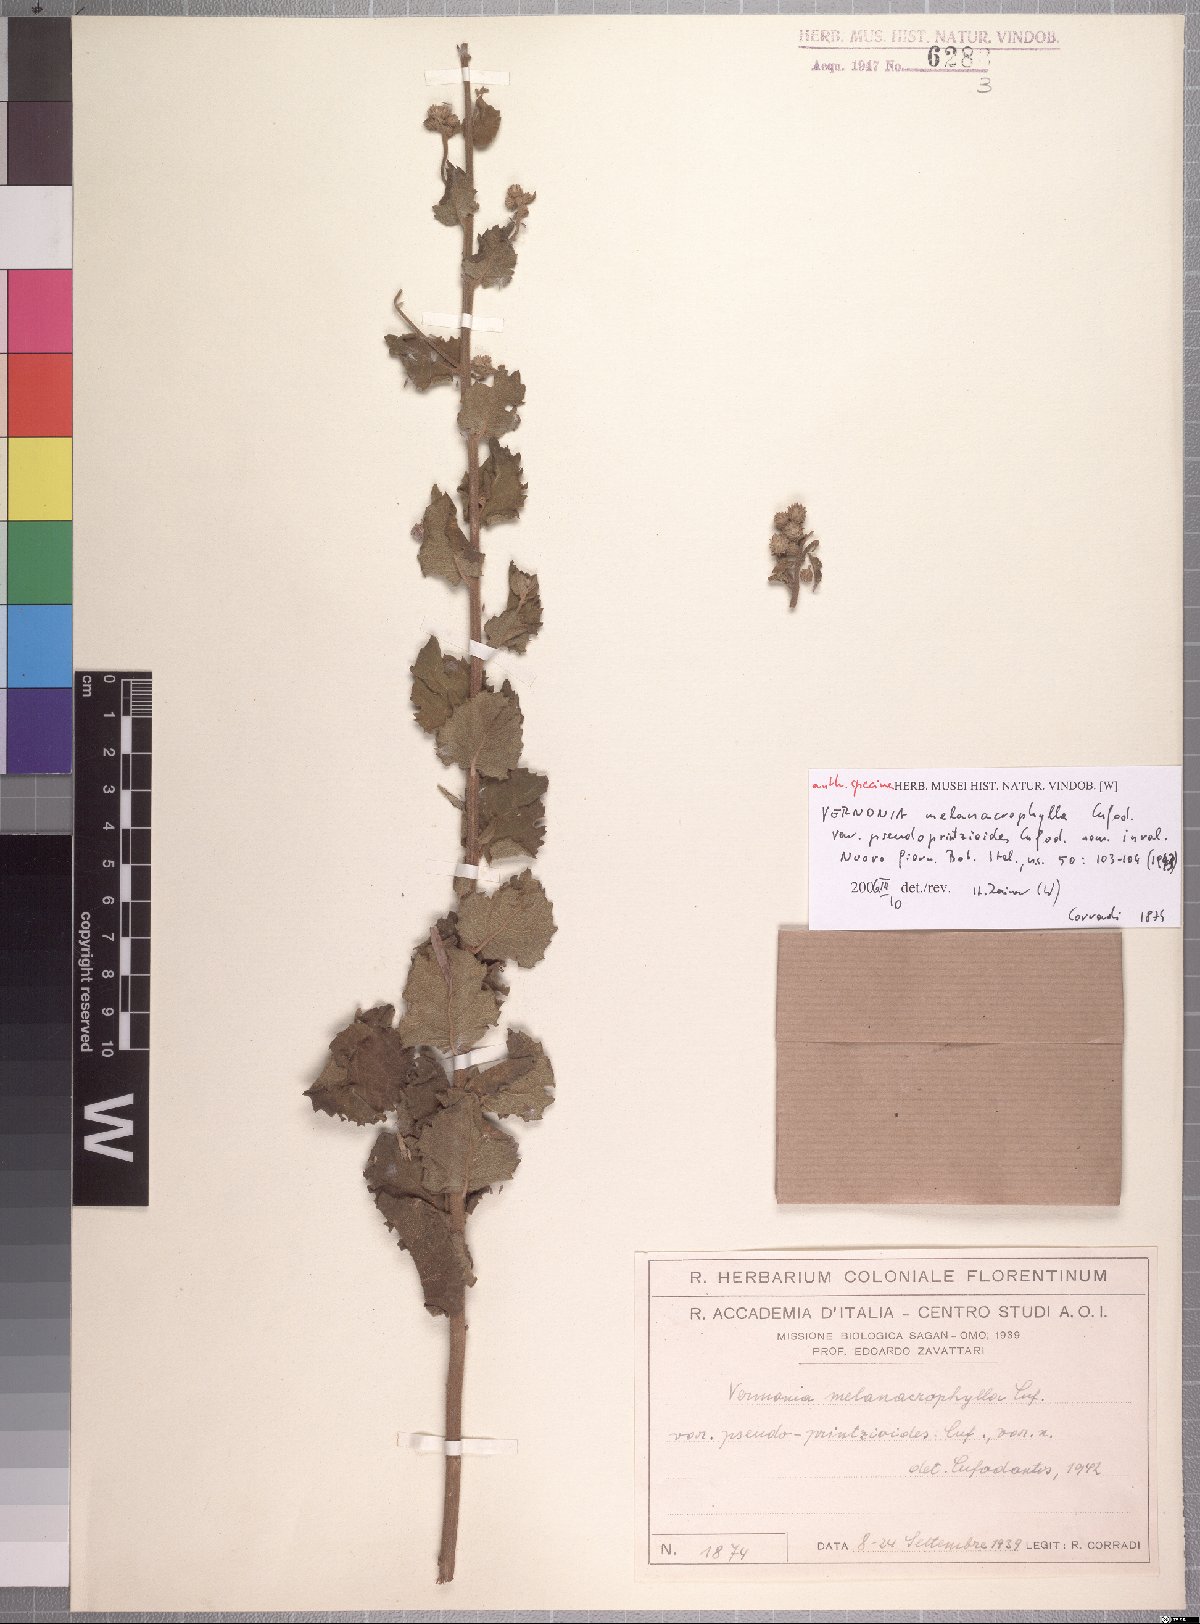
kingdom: Plantae
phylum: Tracheophyta
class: Magnoliopsida
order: Asterales
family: Asteraceae
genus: Orbivestus
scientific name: Orbivestus karaguensis
